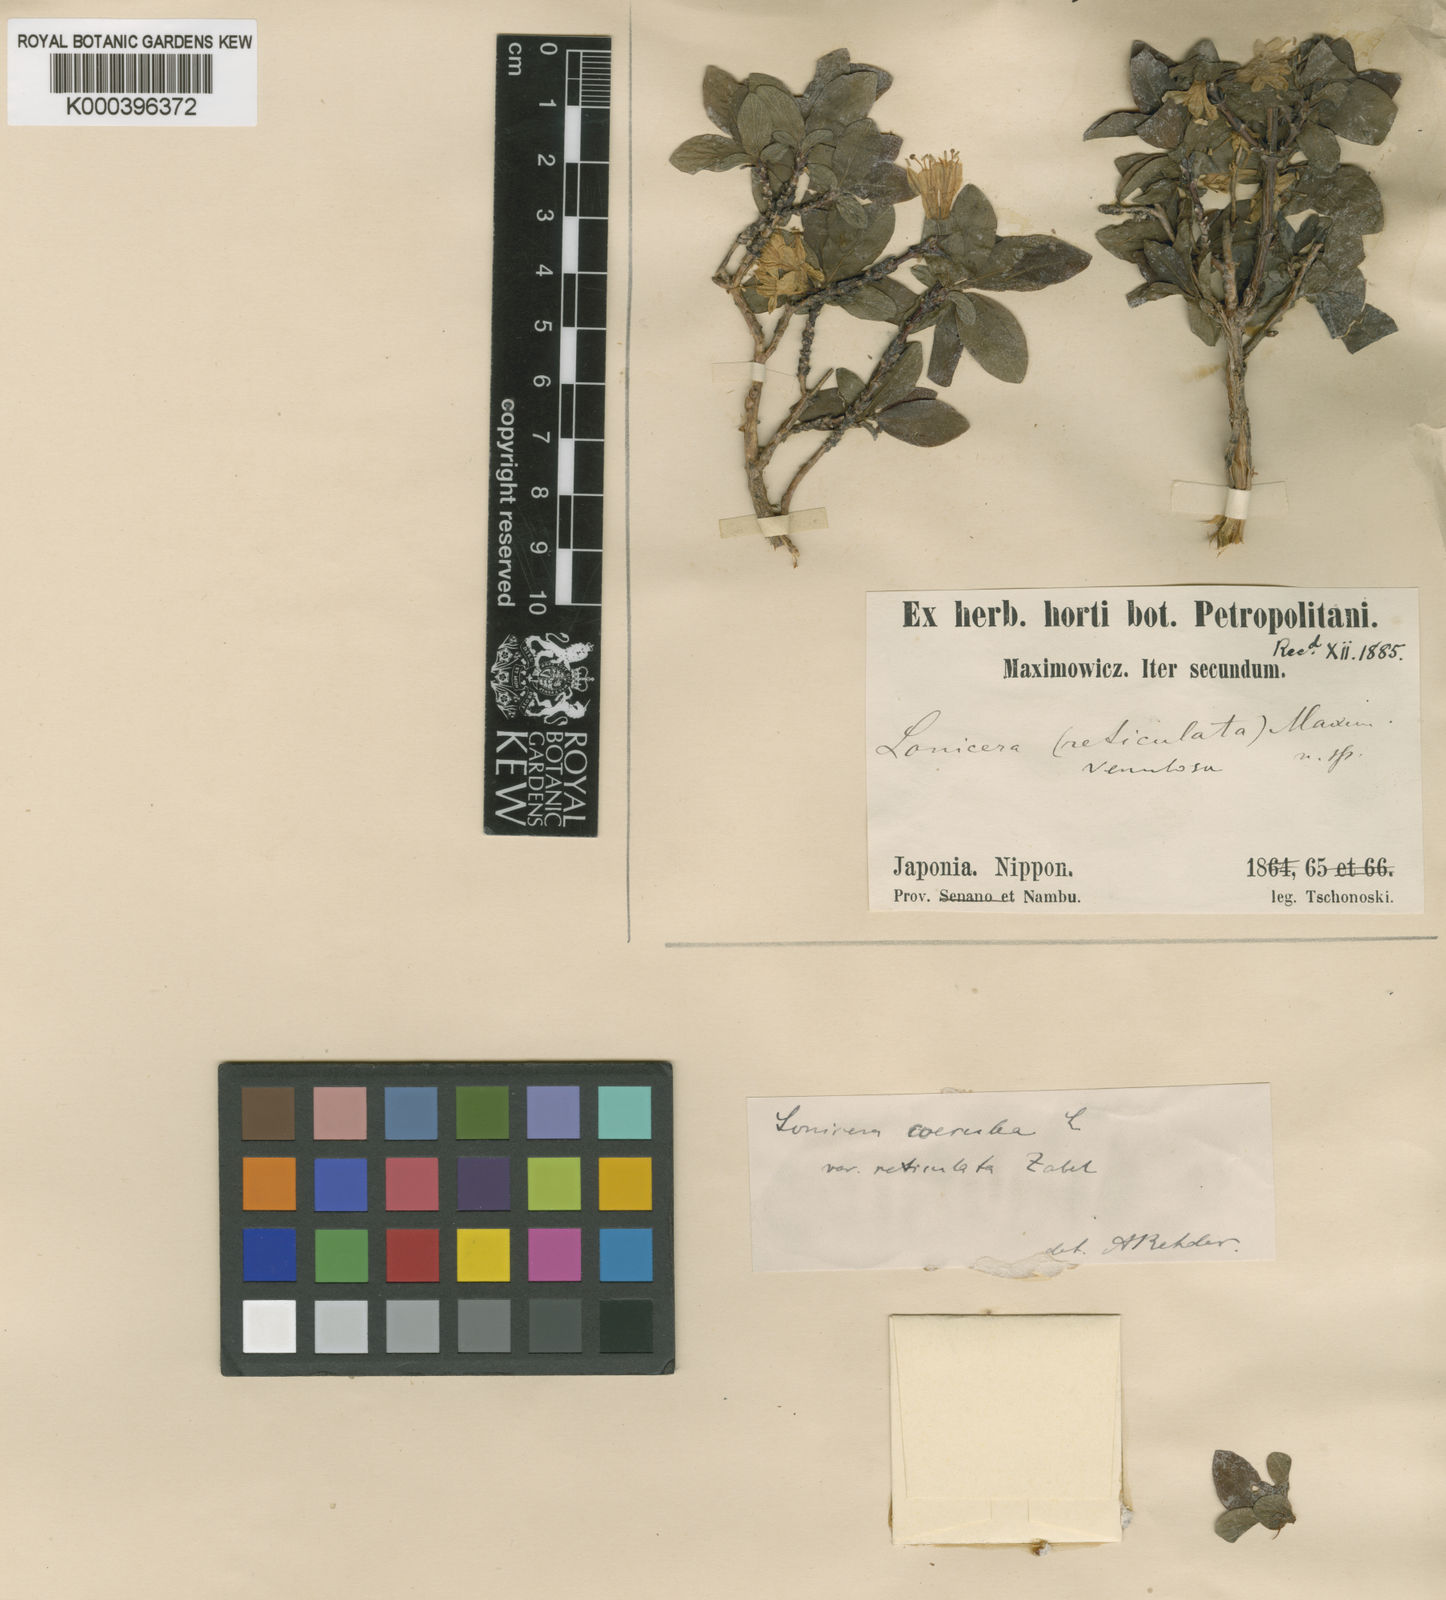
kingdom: Plantae
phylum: Tracheophyta
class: Magnoliopsida
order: Dipsacales
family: Caprifoliaceae
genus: Lonicera
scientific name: Lonicera
